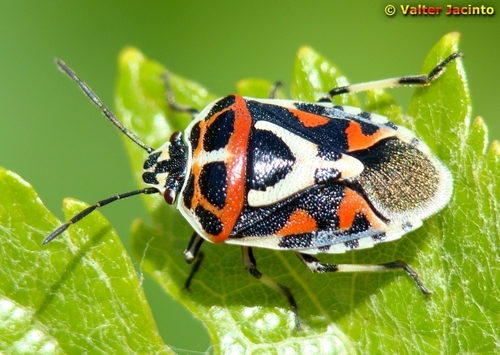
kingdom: Animalia
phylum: Arthropoda
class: Insecta
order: Hemiptera
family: Pentatomidae
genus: Eurydema
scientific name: Eurydema ornata
